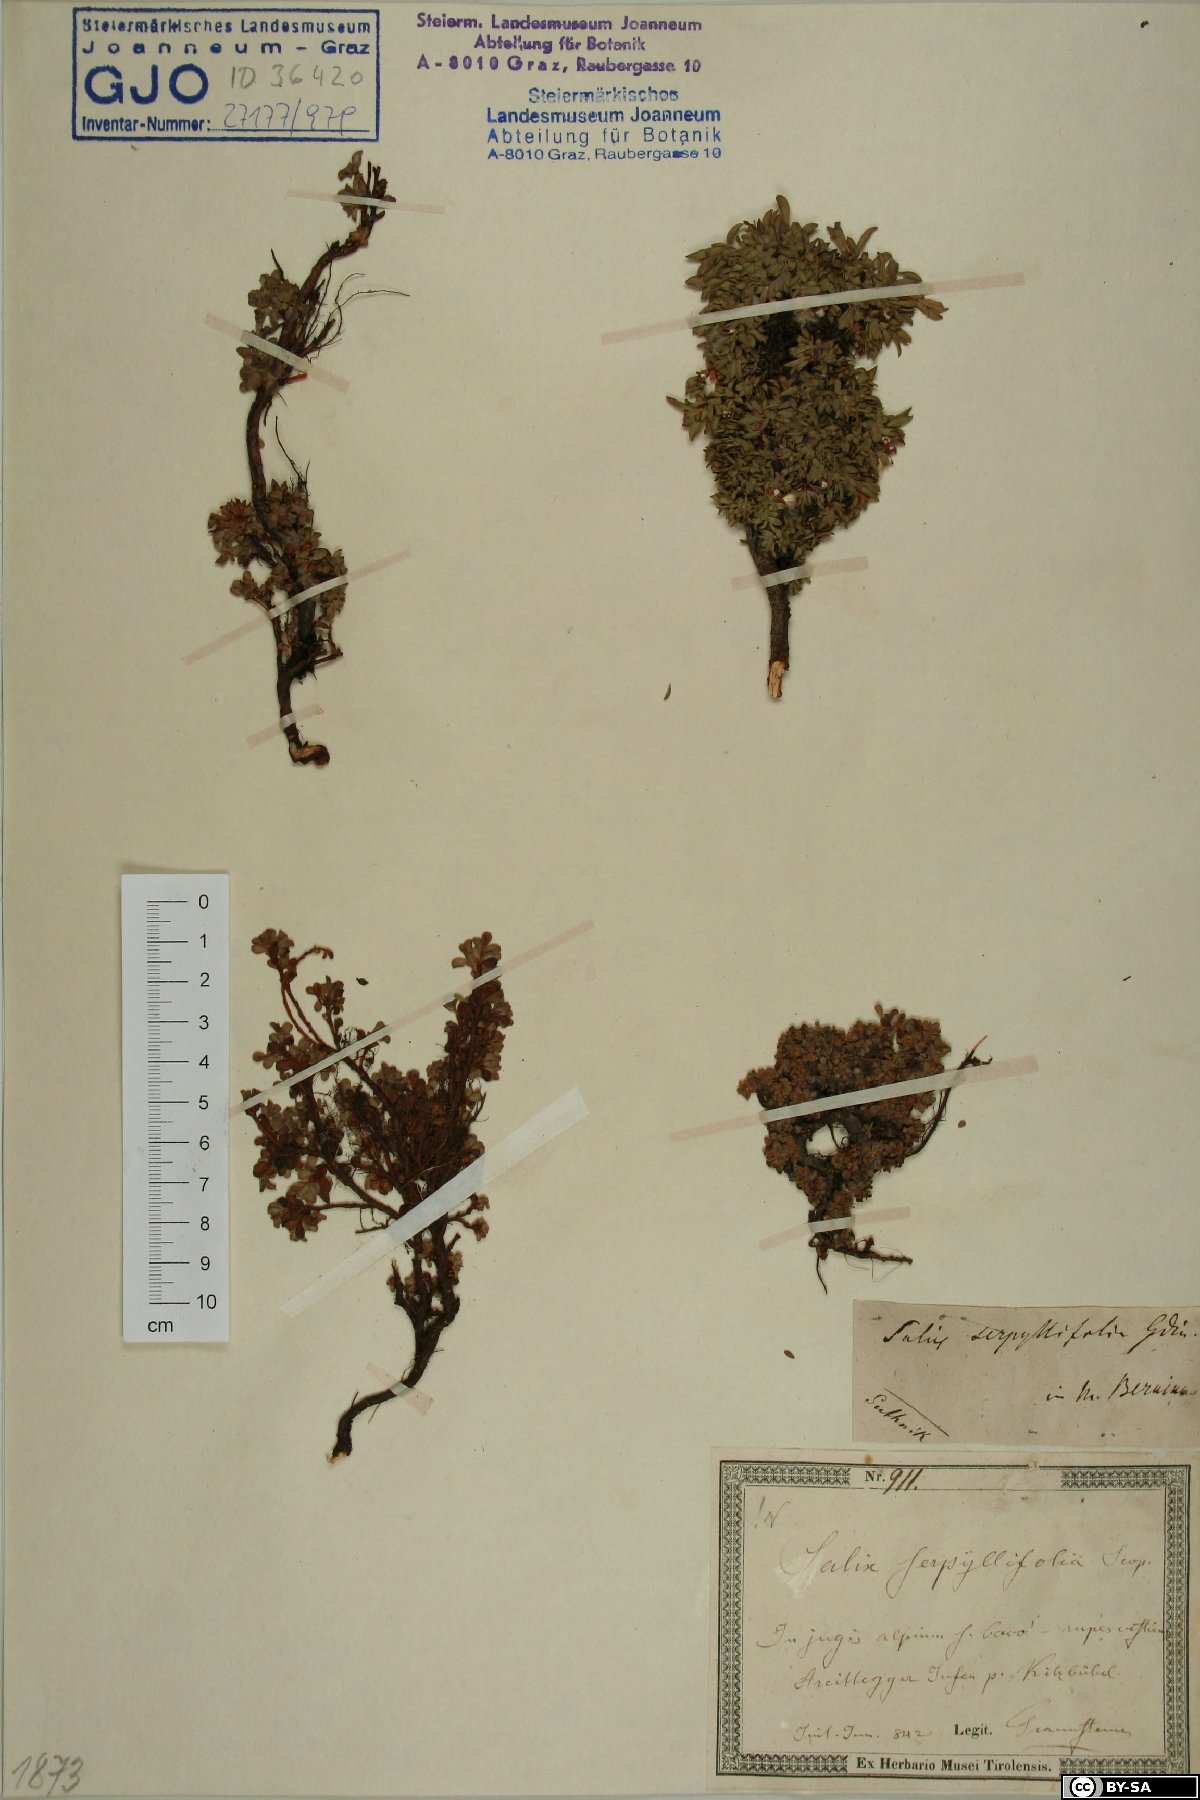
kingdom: Plantae
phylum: Tracheophyta
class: Magnoliopsida
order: Malpighiales
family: Salicaceae
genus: Salix
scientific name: Salix serpillifolia
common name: Thyme-leaf willow
